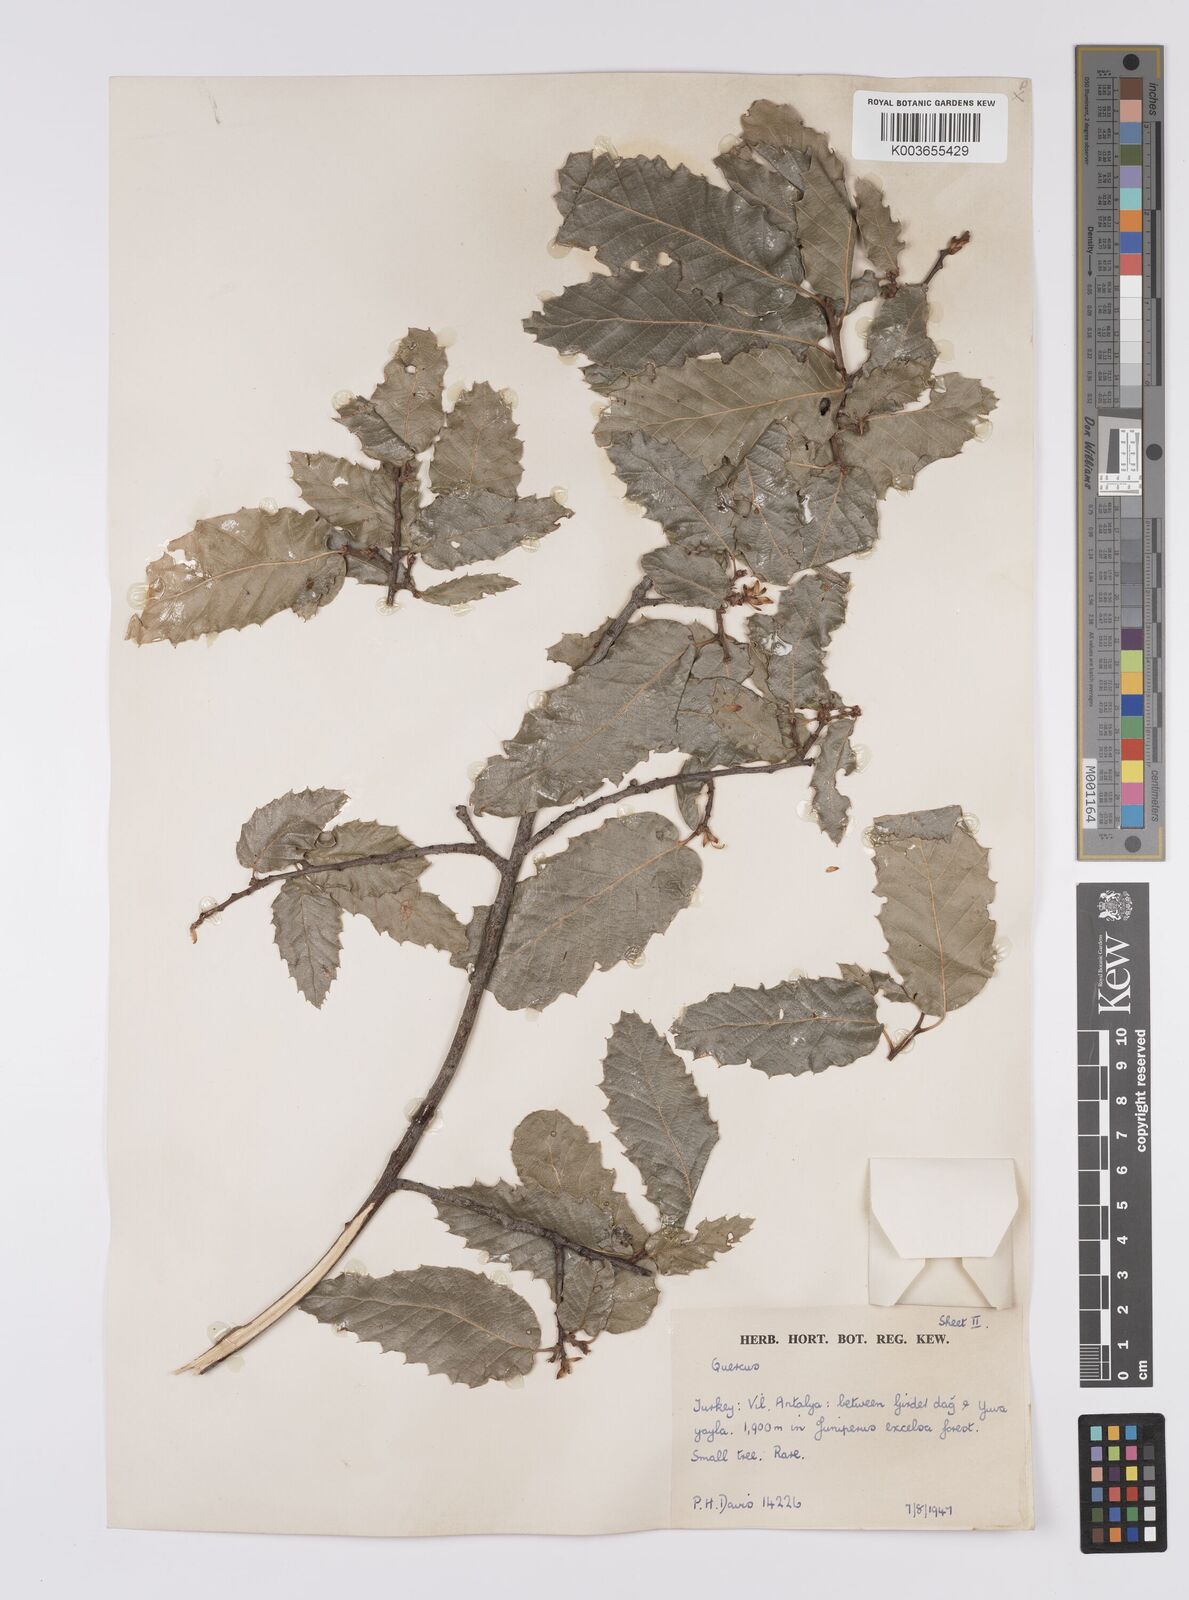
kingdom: Plantae
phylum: Tracheophyta
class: Magnoliopsida
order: Fagales
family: Fagaceae
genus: Quercus
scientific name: Quercus trojana
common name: Macedonian oak
